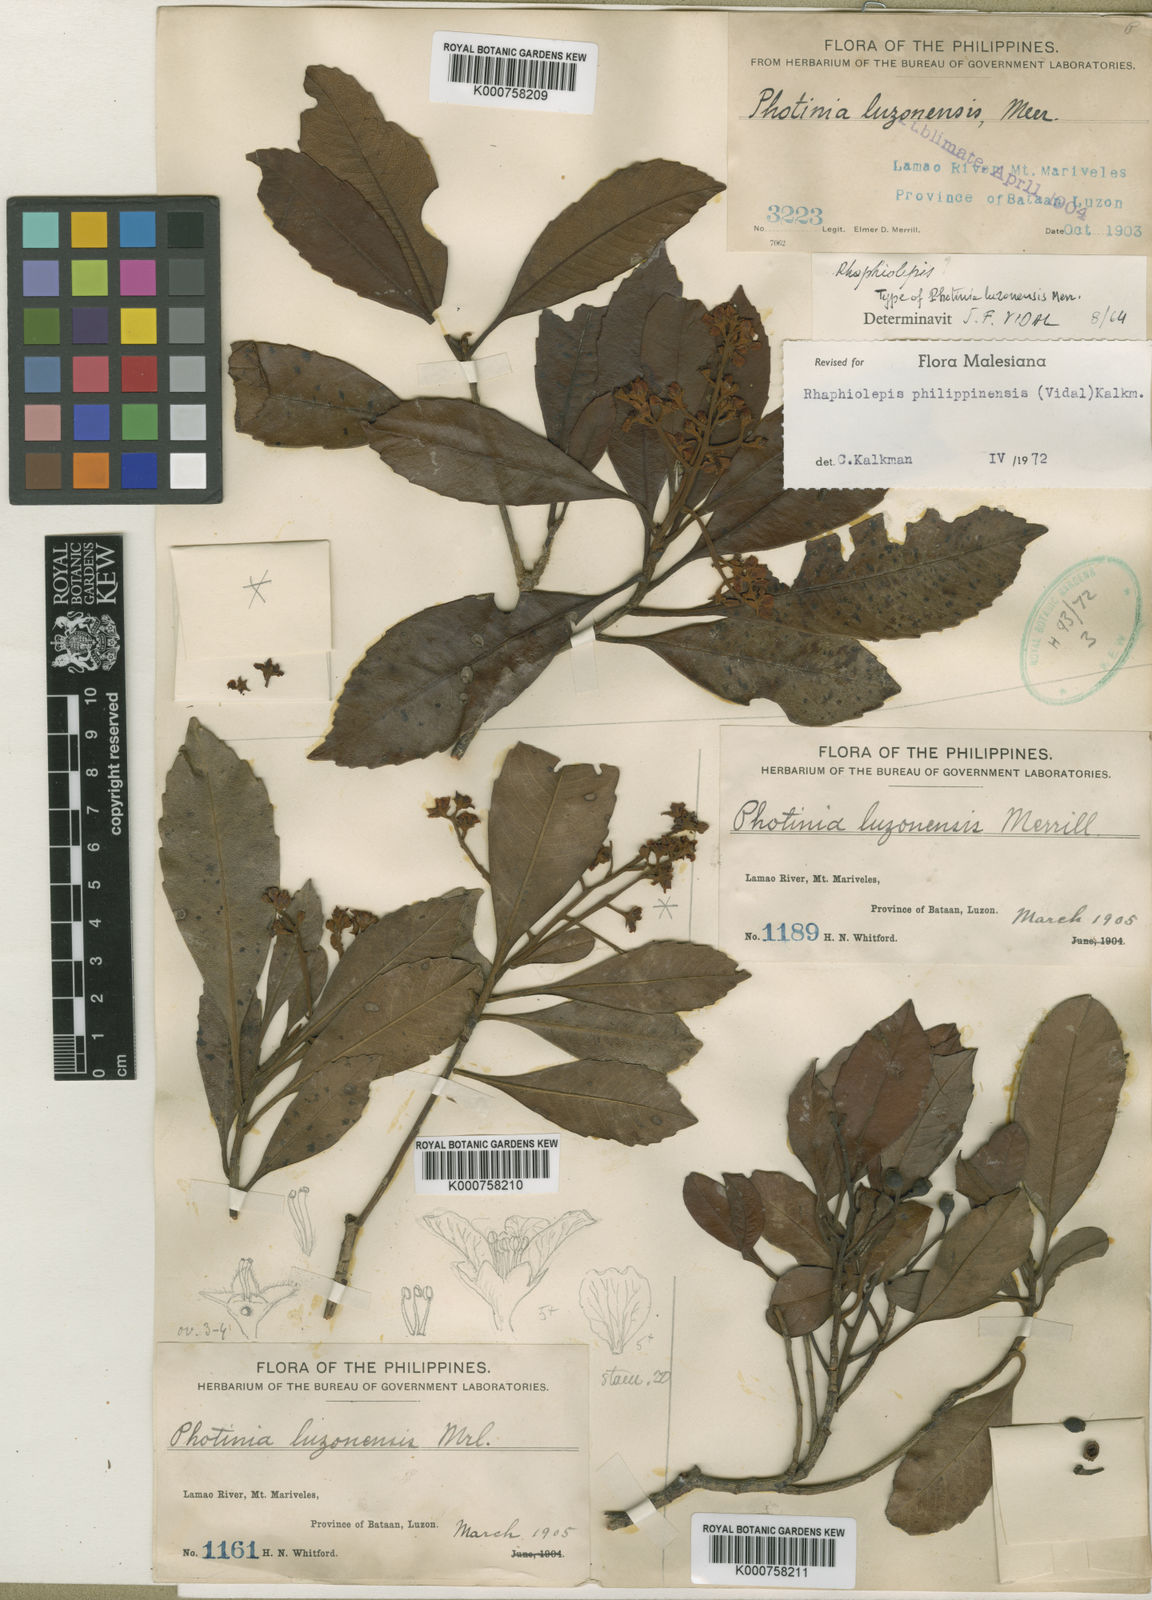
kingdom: Plantae
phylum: Tracheophyta
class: Magnoliopsida
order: Rosales
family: Rosaceae
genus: Rhaphiolepis
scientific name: Rhaphiolepis philippinensis
